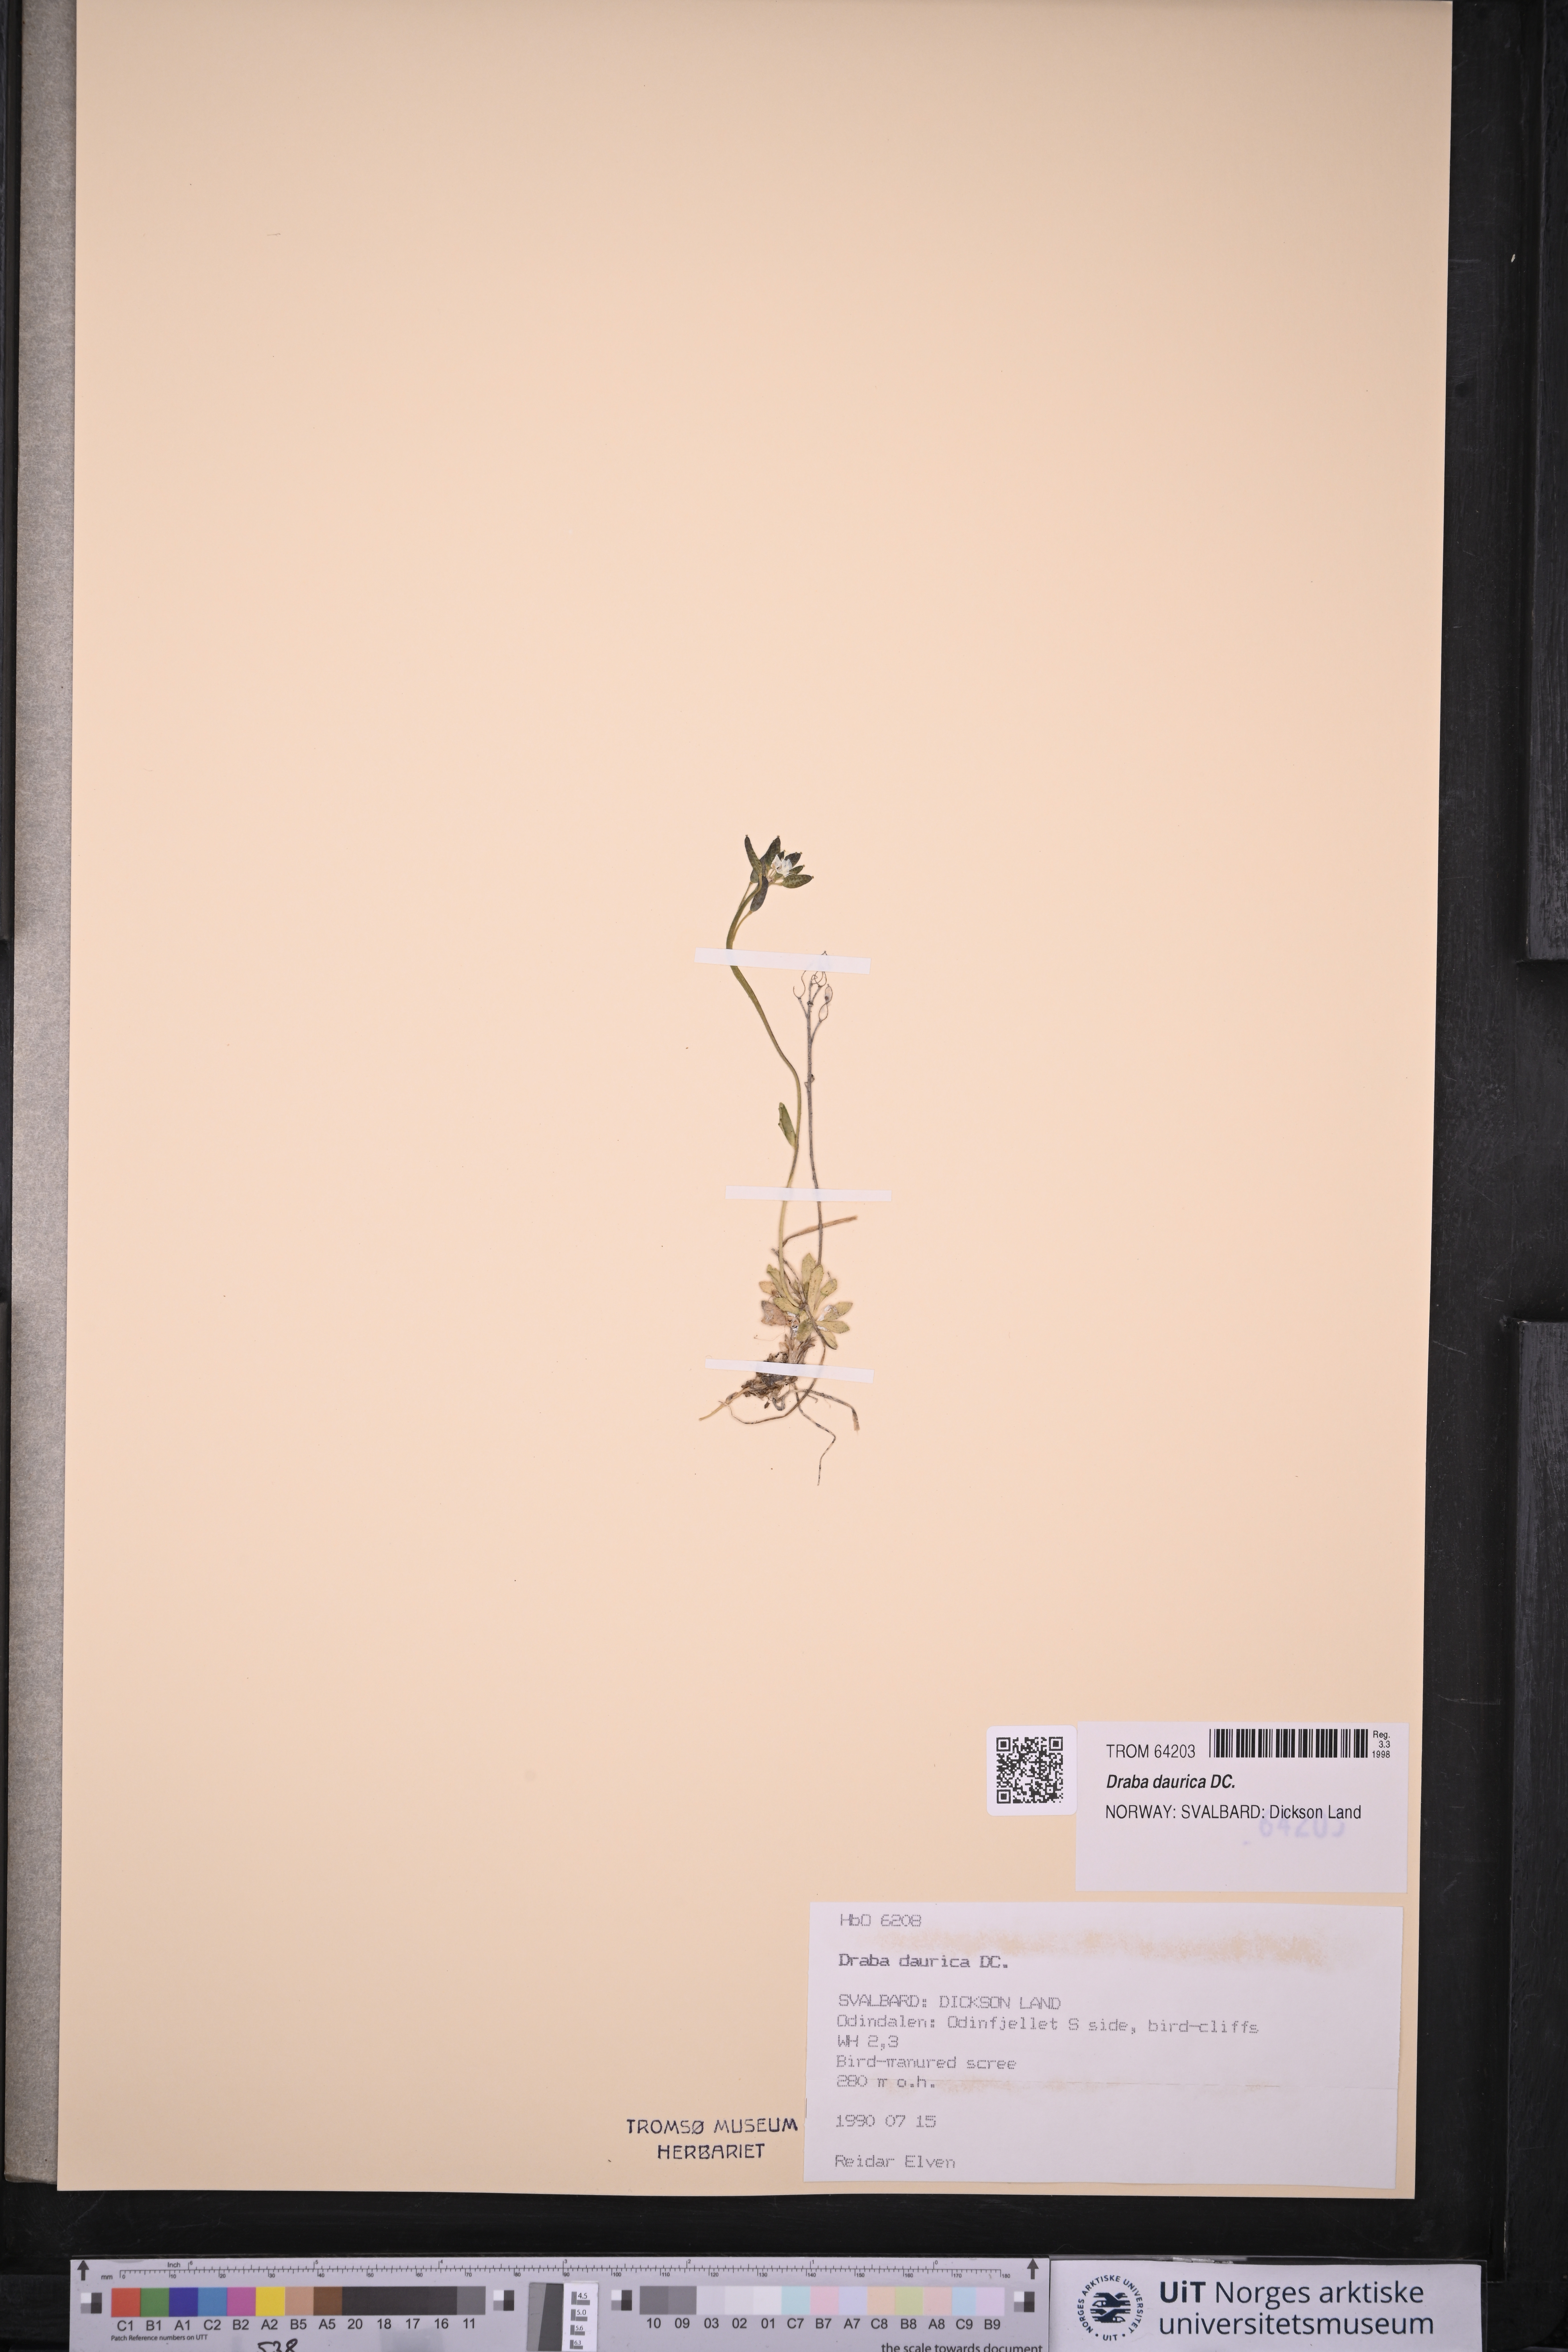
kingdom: Plantae
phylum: Tracheophyta
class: Magnoliopsida
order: Brassicales
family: Brassicaceae
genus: Draba
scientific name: Draba glabella
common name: Glaucous draba
